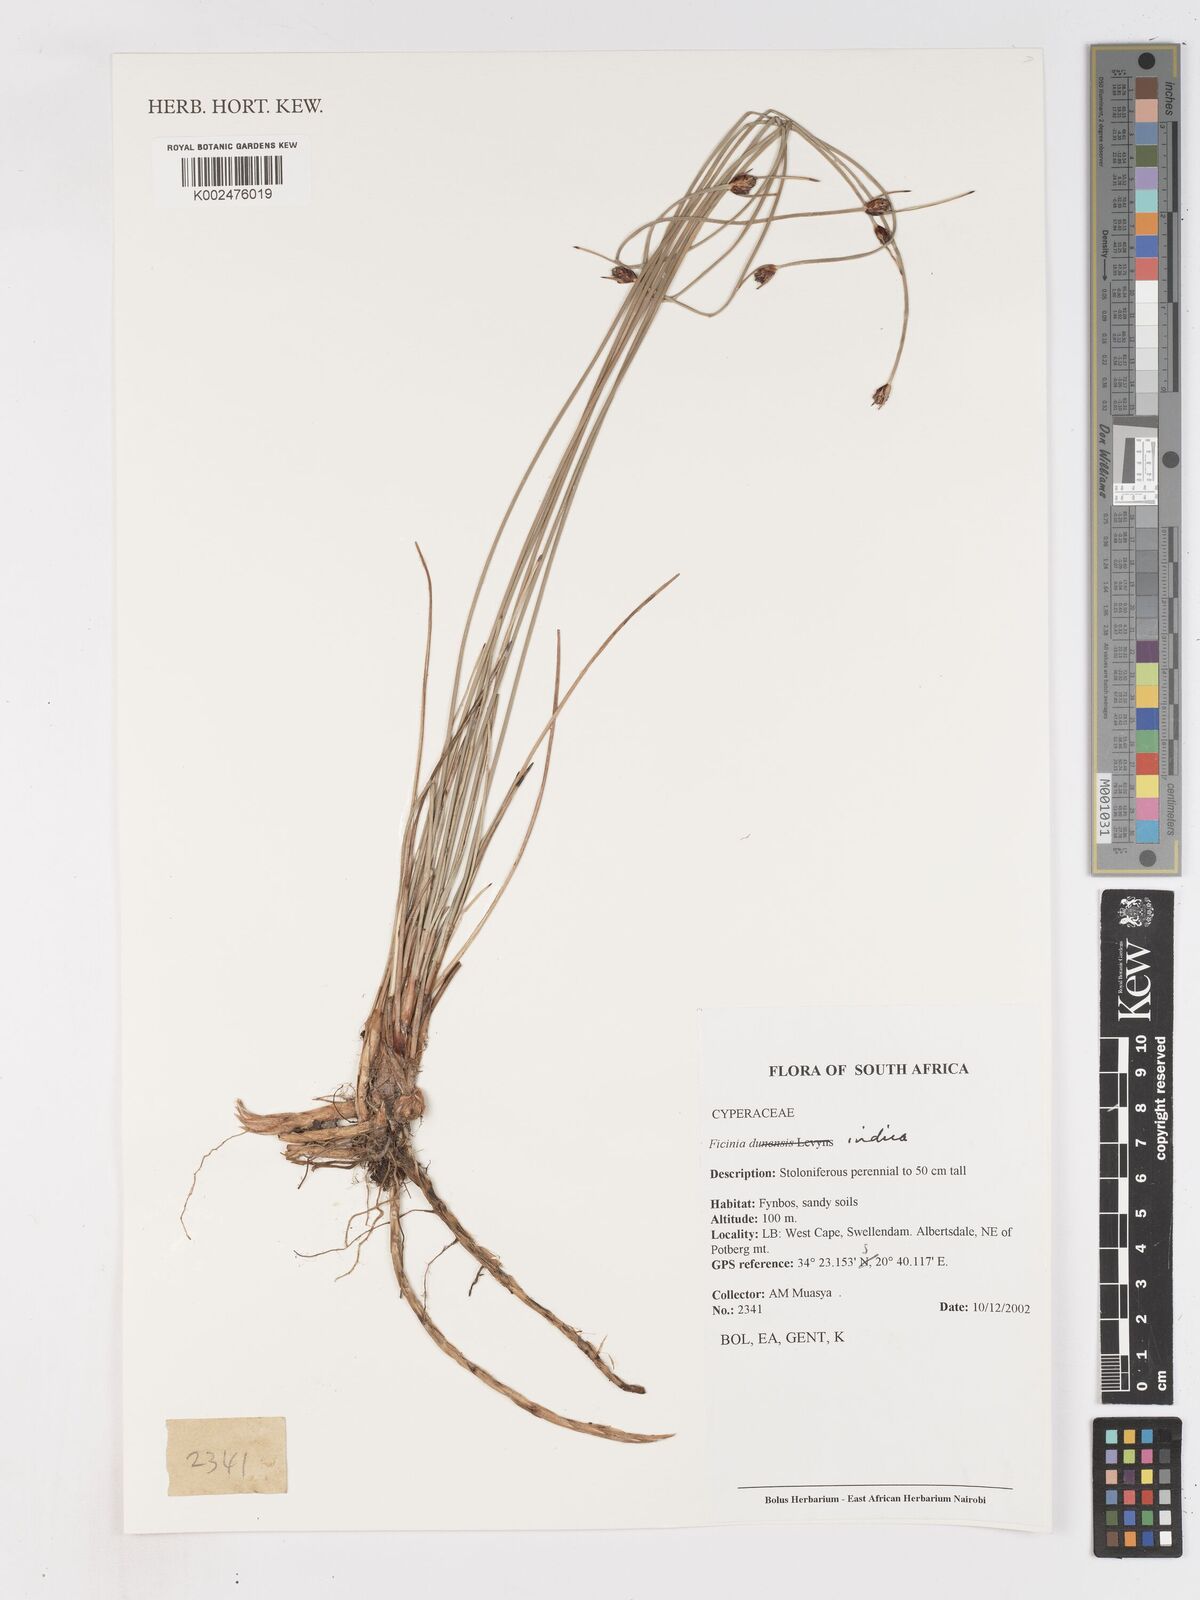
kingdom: Plantae
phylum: Tracheophyta
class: Liliopsida
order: Poales
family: Cyperaceae
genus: Ficinia
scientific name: Ficinia indica
